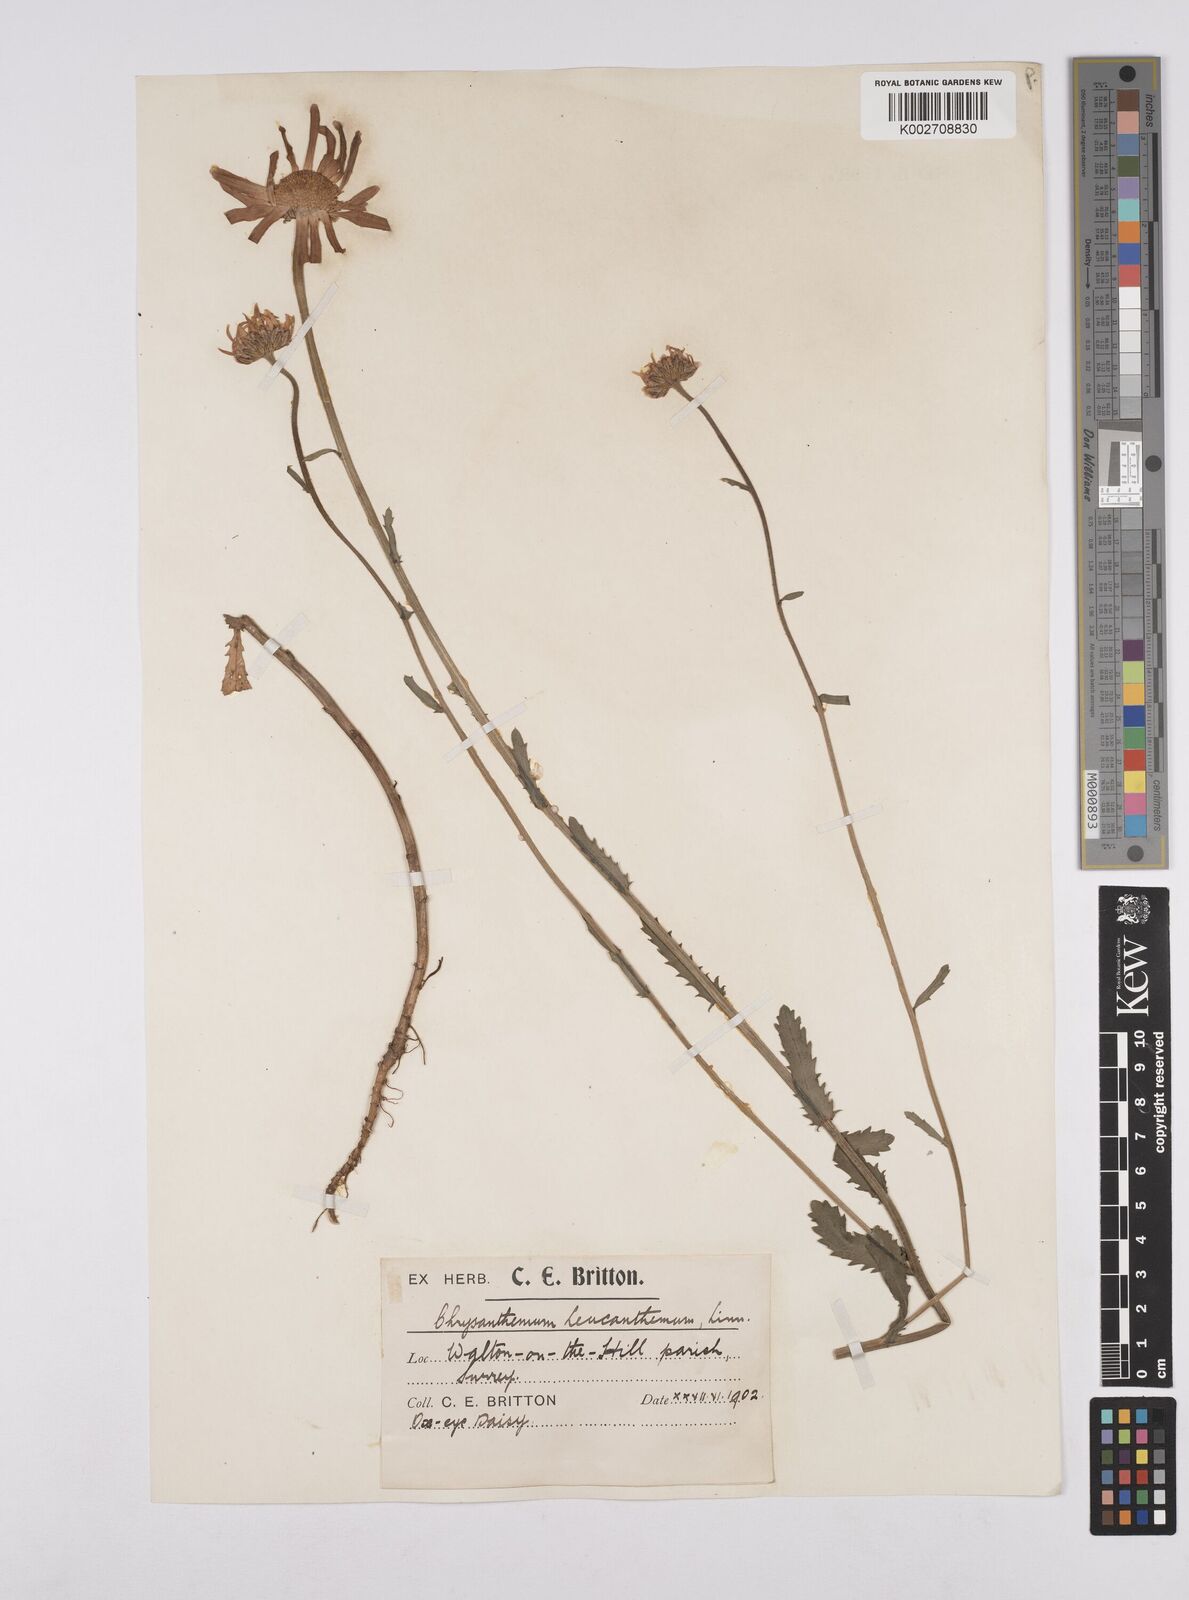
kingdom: Plantae
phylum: Tracheophyta
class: Magnoliopsida
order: Asterales
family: Asteraceae
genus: Leucanthemum
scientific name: Leucanthemum
